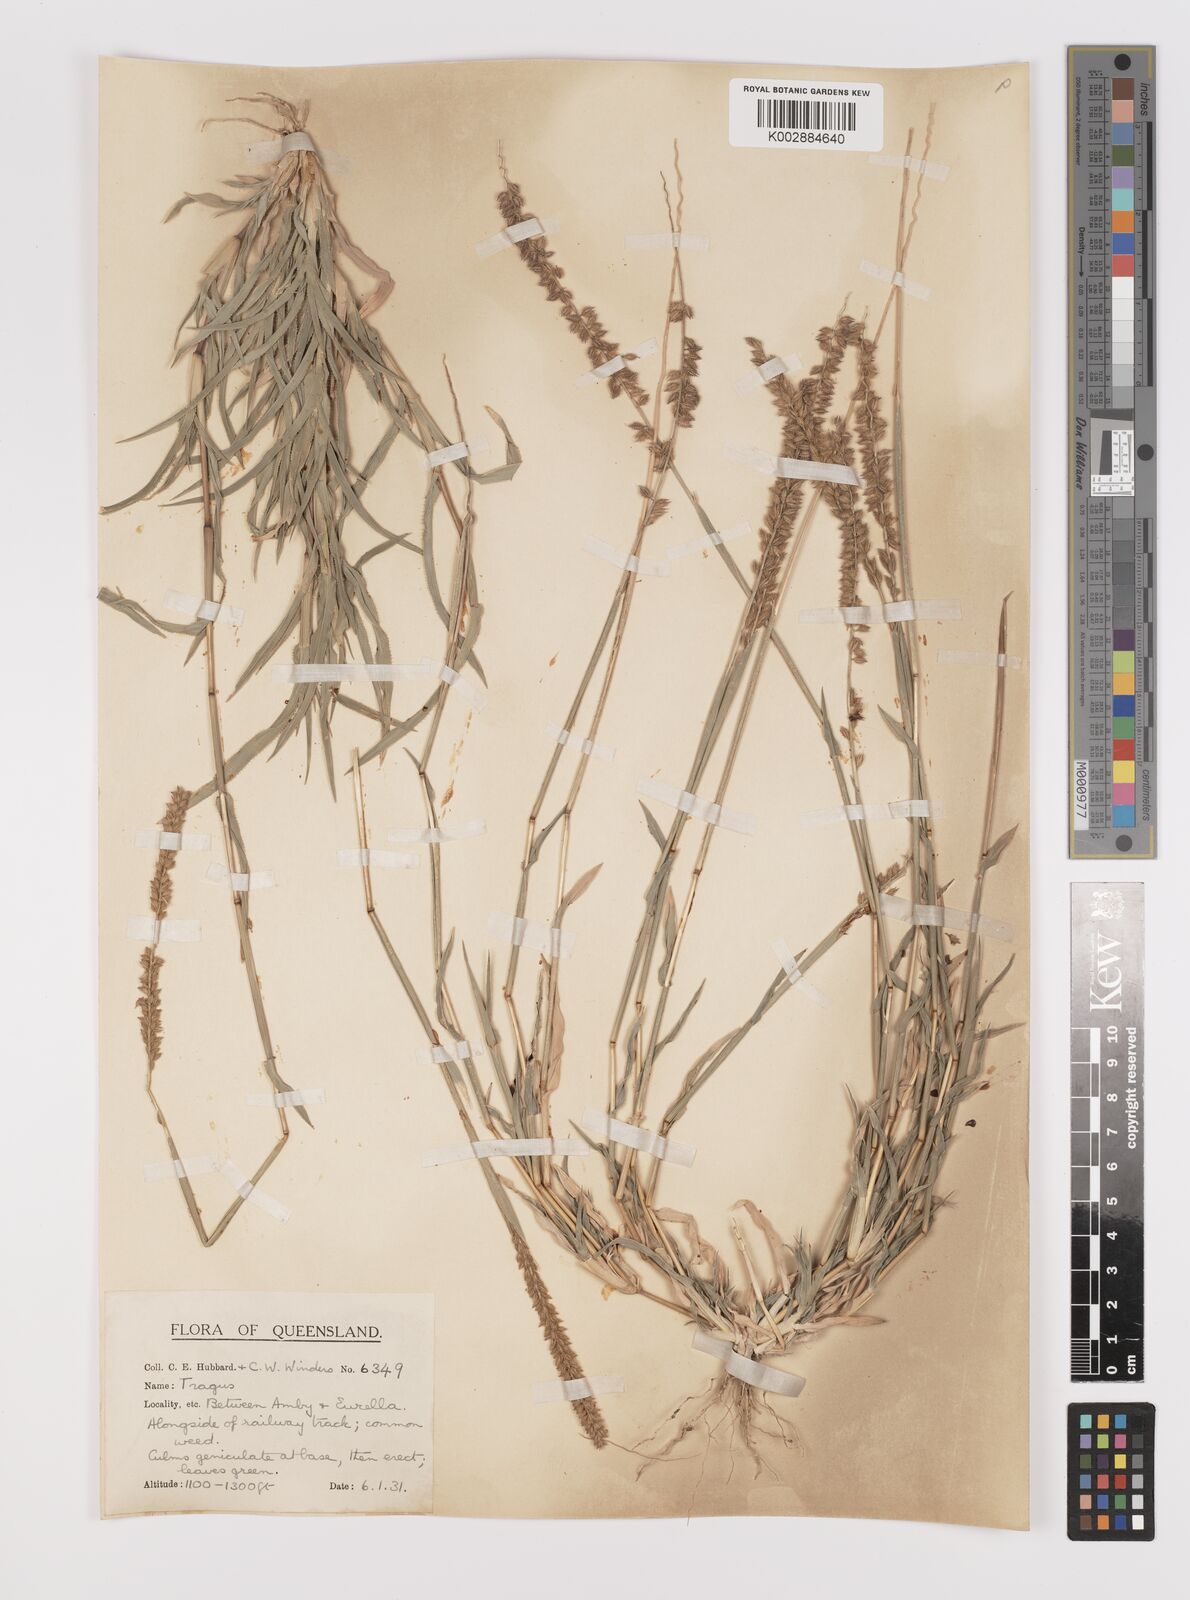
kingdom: Plantae
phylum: Tracheophyta
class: Liliopsida
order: Poales
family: Poaceae
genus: Tragus
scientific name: Tragus australianus
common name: Australian bur-grass
